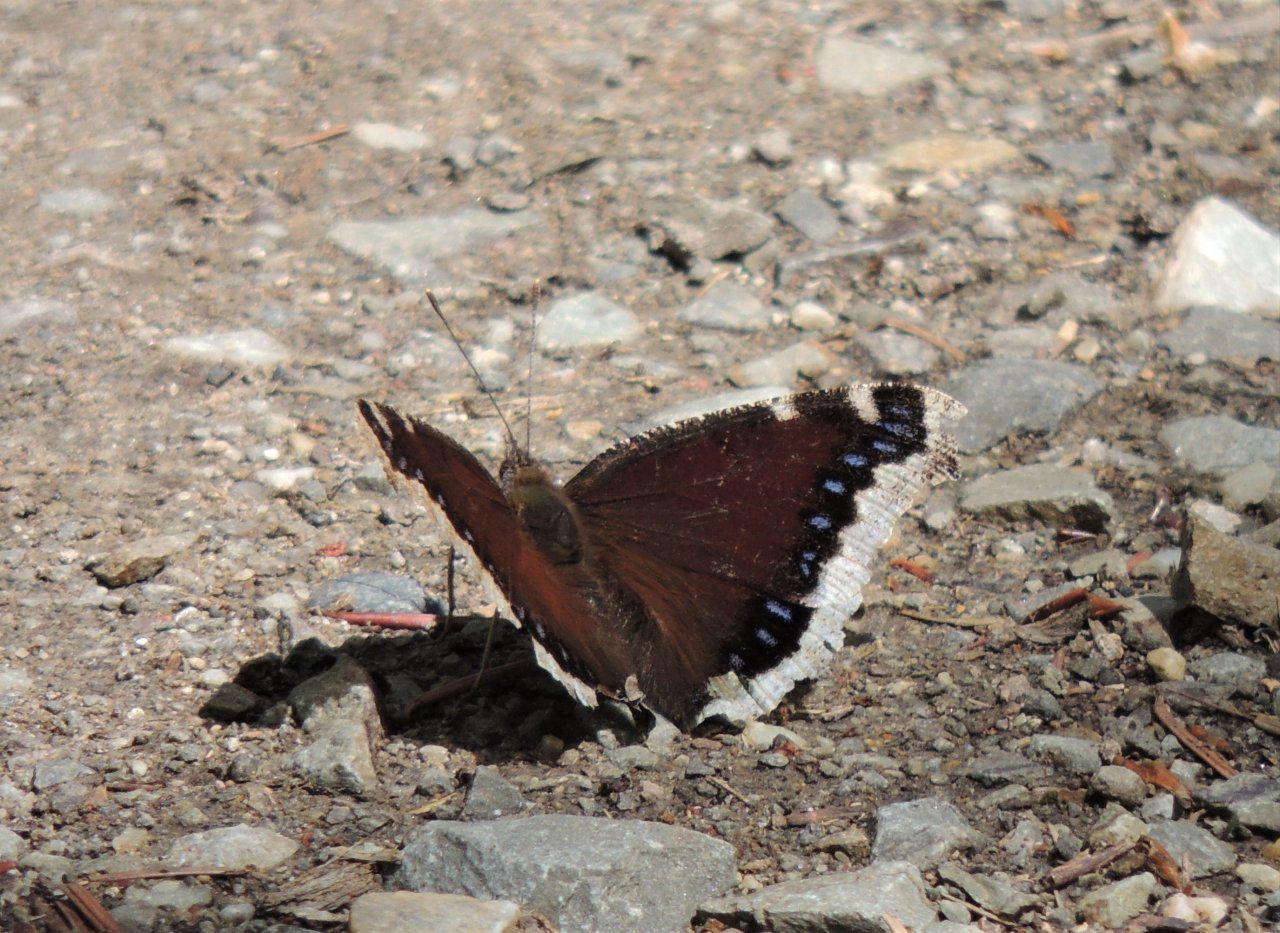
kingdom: Animalia
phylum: Arthropoda
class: Insecta
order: Lepidoptera
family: Nymphalidae
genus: Nymphalis
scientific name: Nymphalis antiopa
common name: Mourning Cloak
